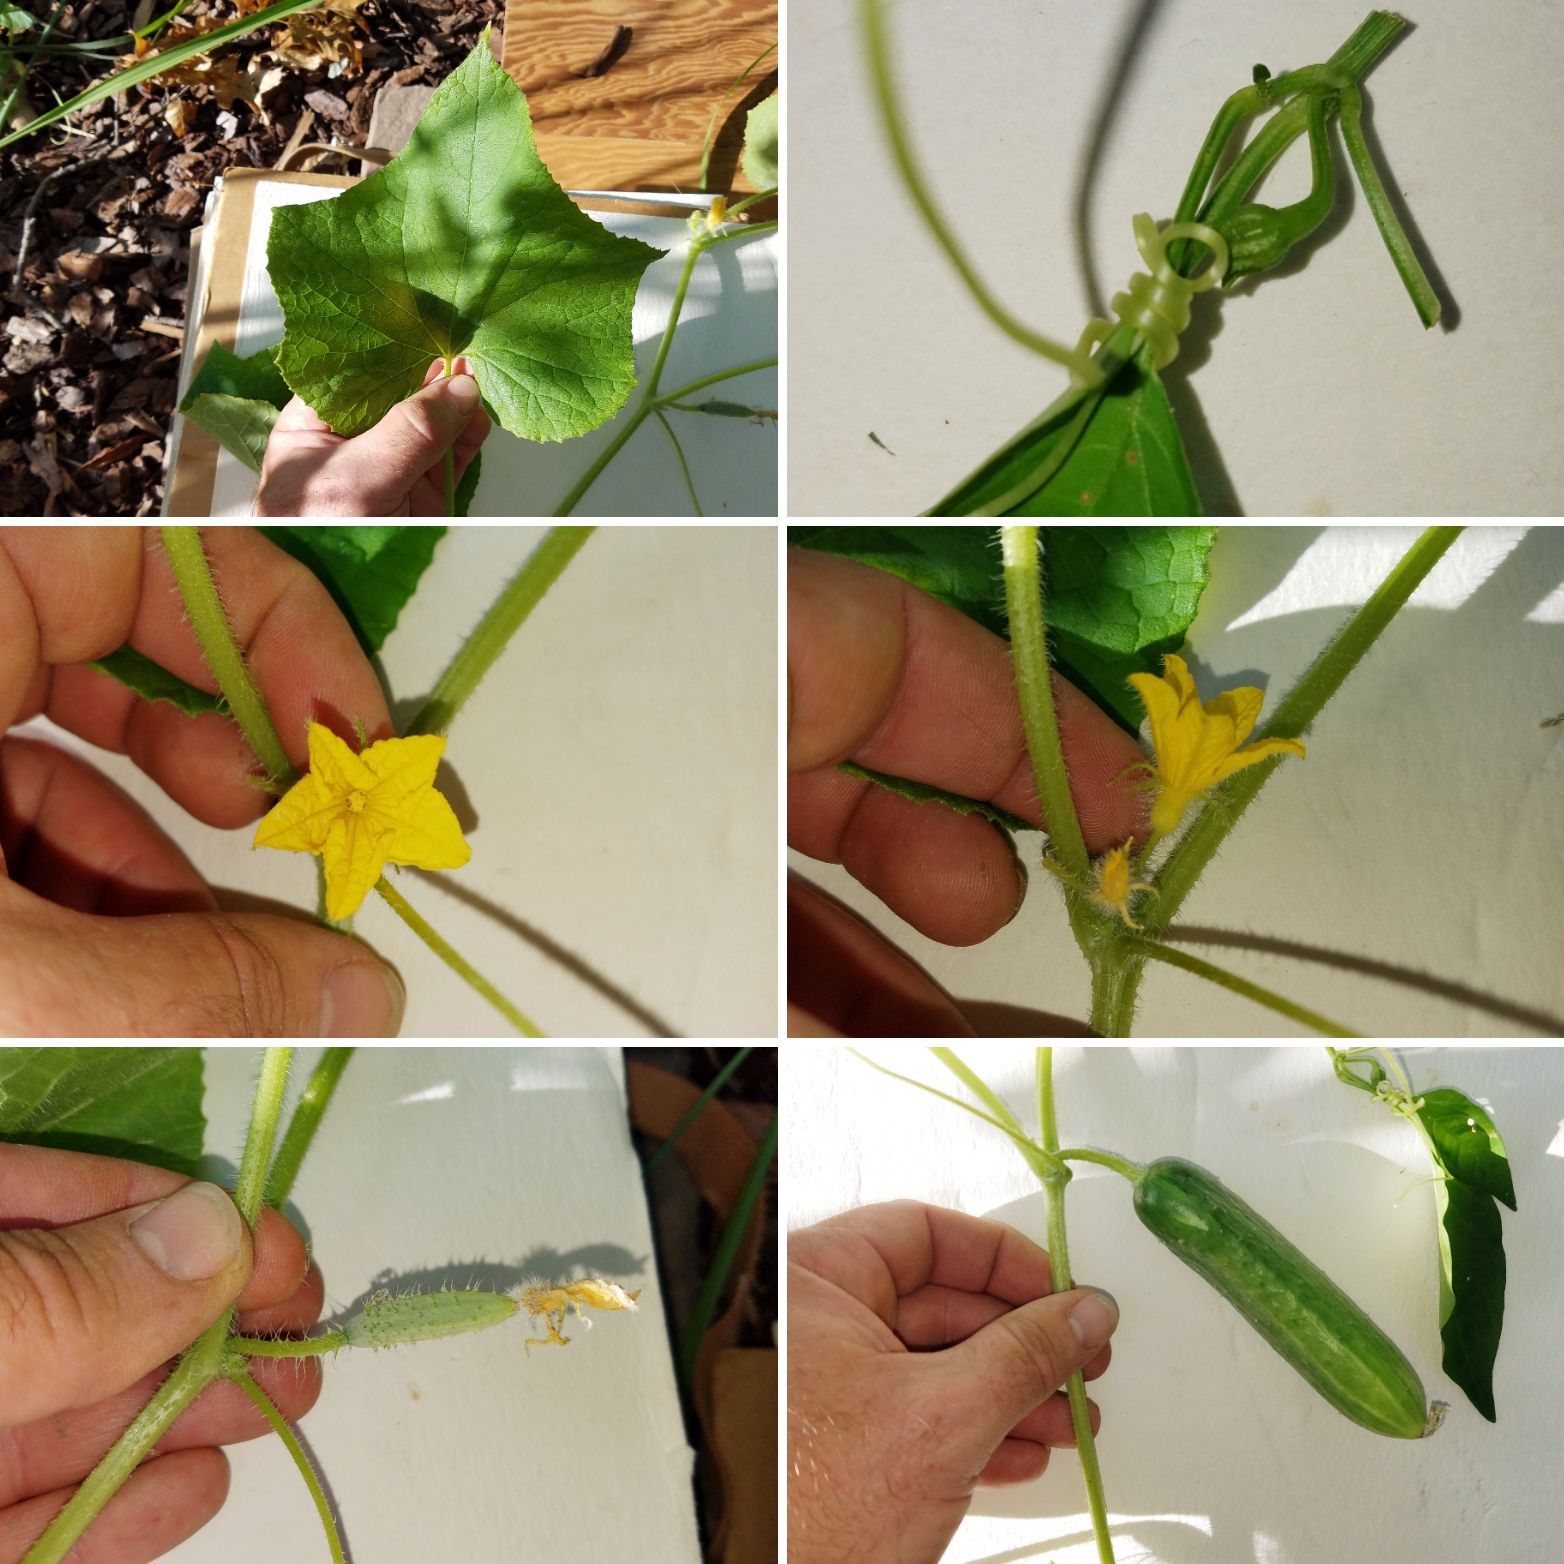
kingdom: Plantae
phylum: Tracheophyta
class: Magnoliopsida
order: Cucurbitales
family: Cucurbitaceae
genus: Cucumis
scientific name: Cucumis sativus
